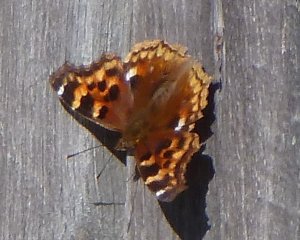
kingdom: Animalia
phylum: Arthropoda
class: Insecta
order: Lepidoptera
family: Nymphalidae
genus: Polygonia
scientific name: Polygonia vaualbum
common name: Compton Tortoiseshell
